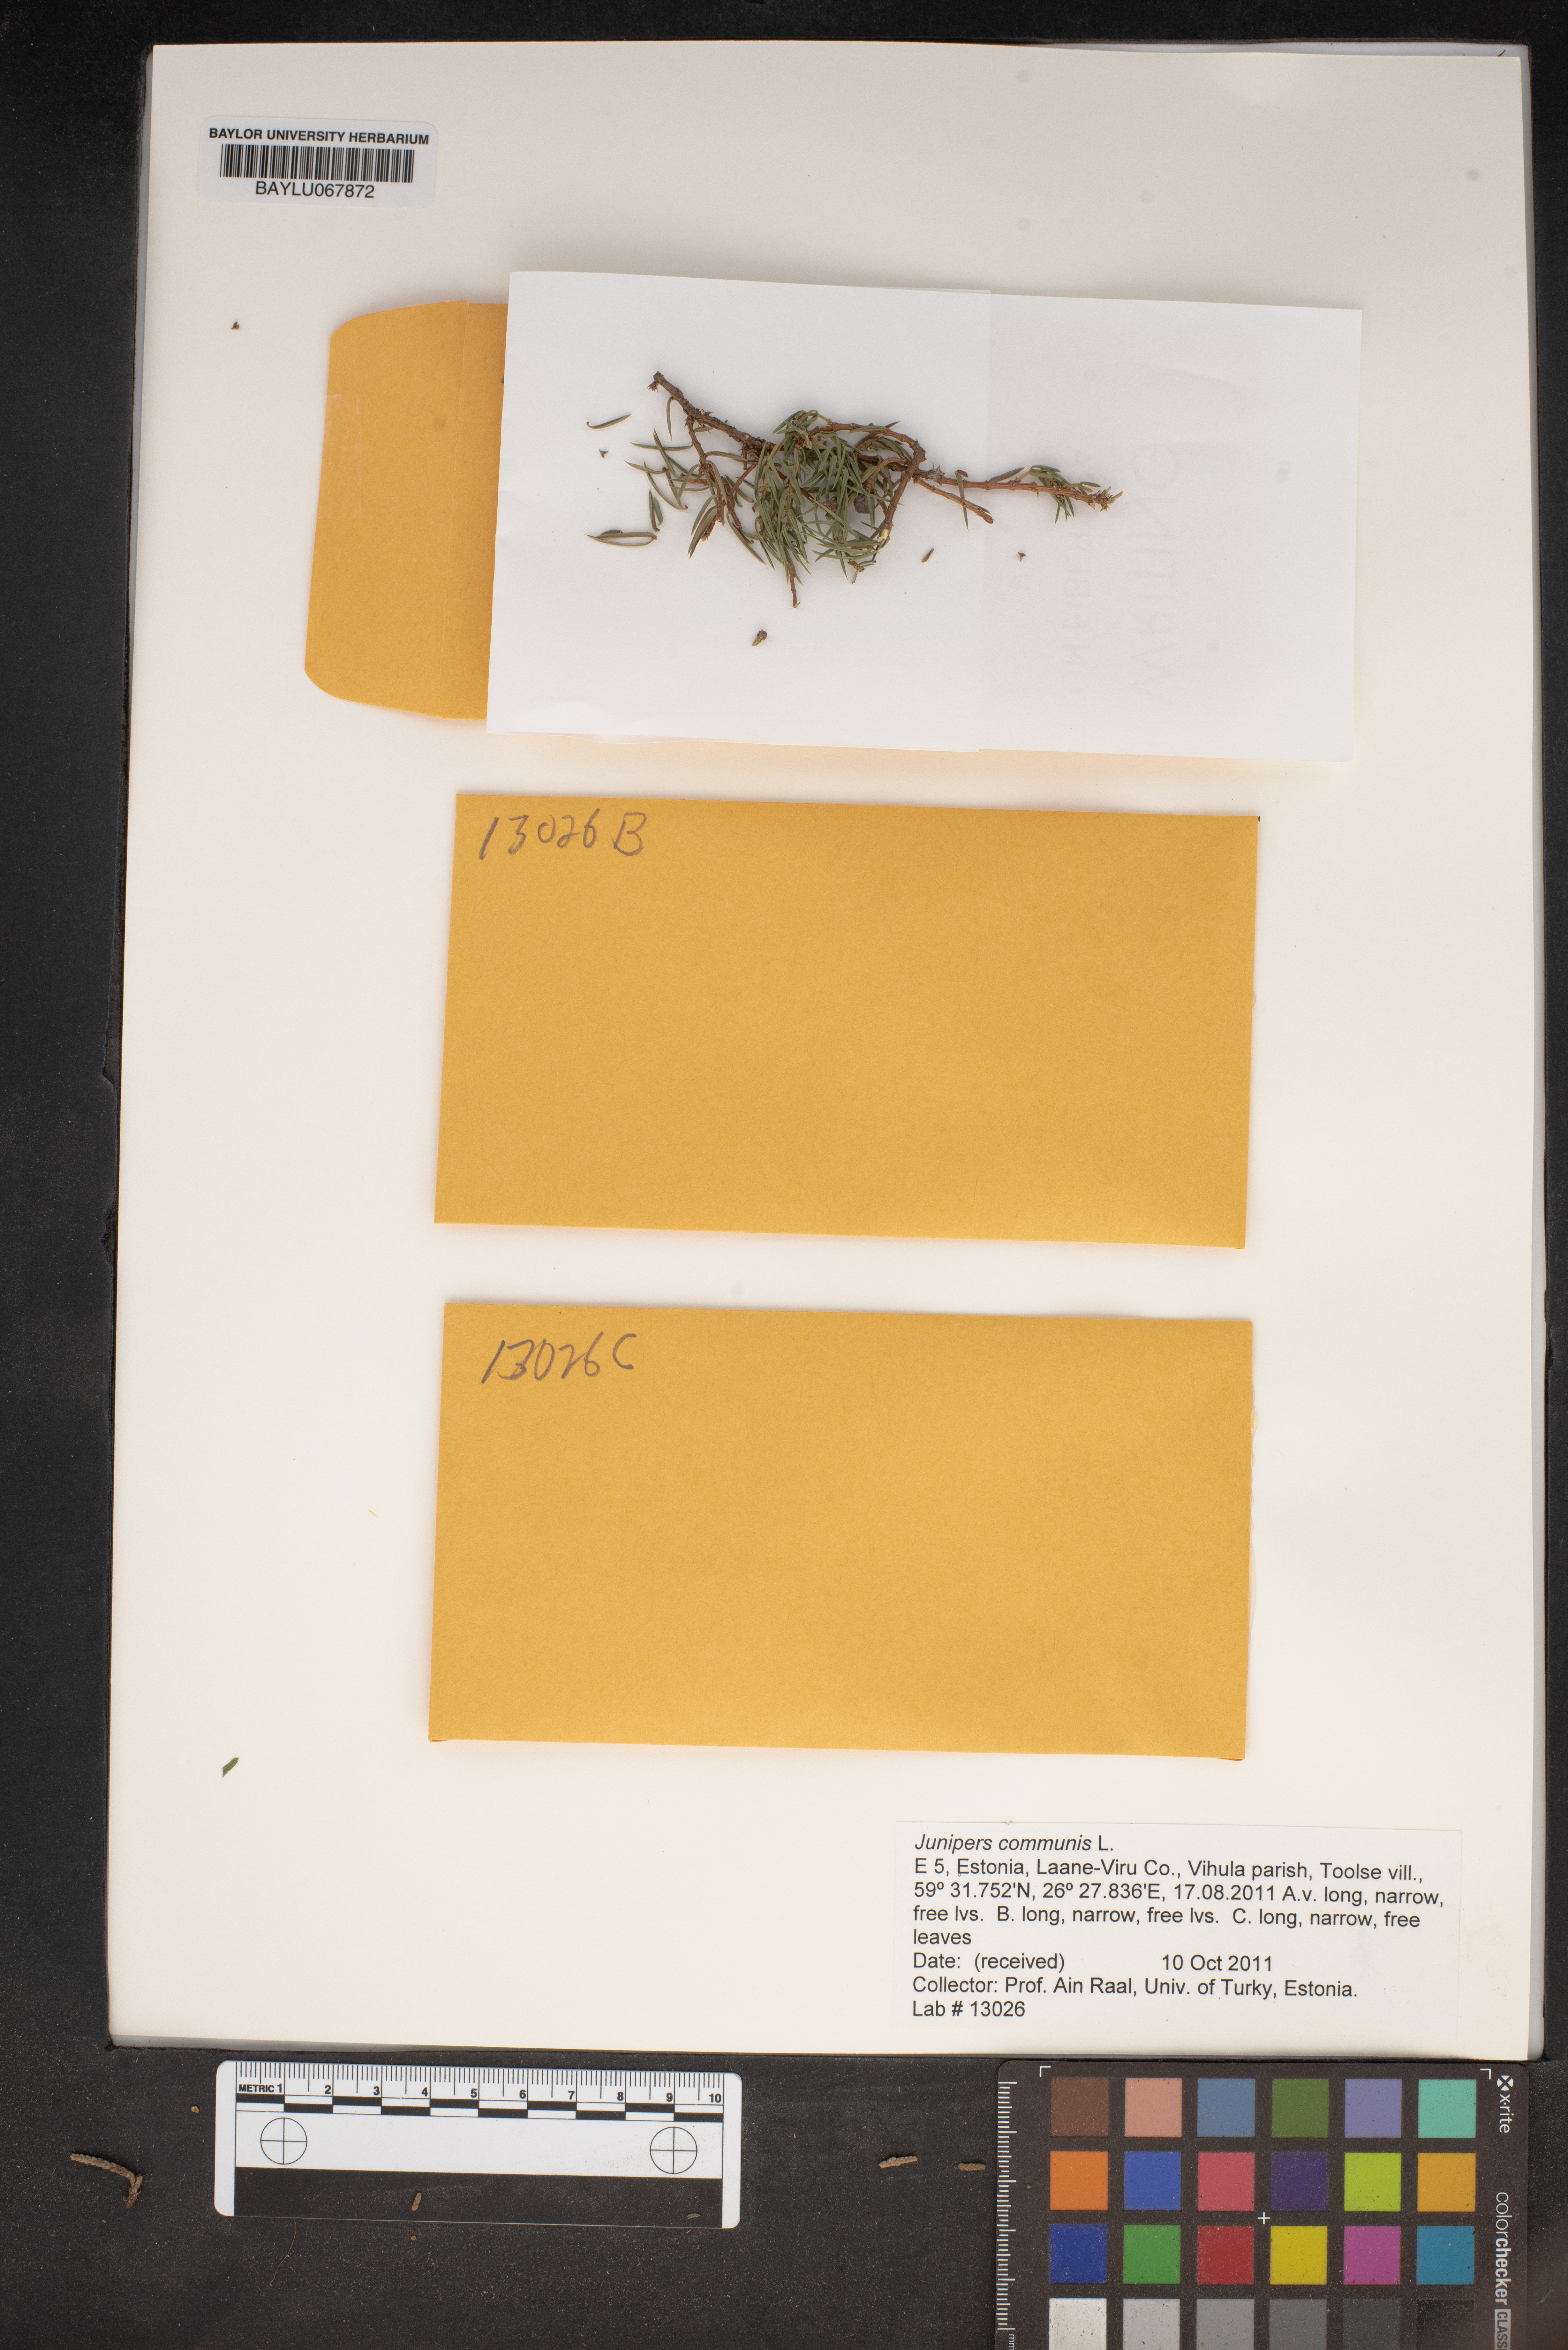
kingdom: Plantae
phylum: Tracheophyta
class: Pinopsida
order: Pinales
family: Cupressaceae
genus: Juniperus
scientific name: Juniperus communis
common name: Common juniper
